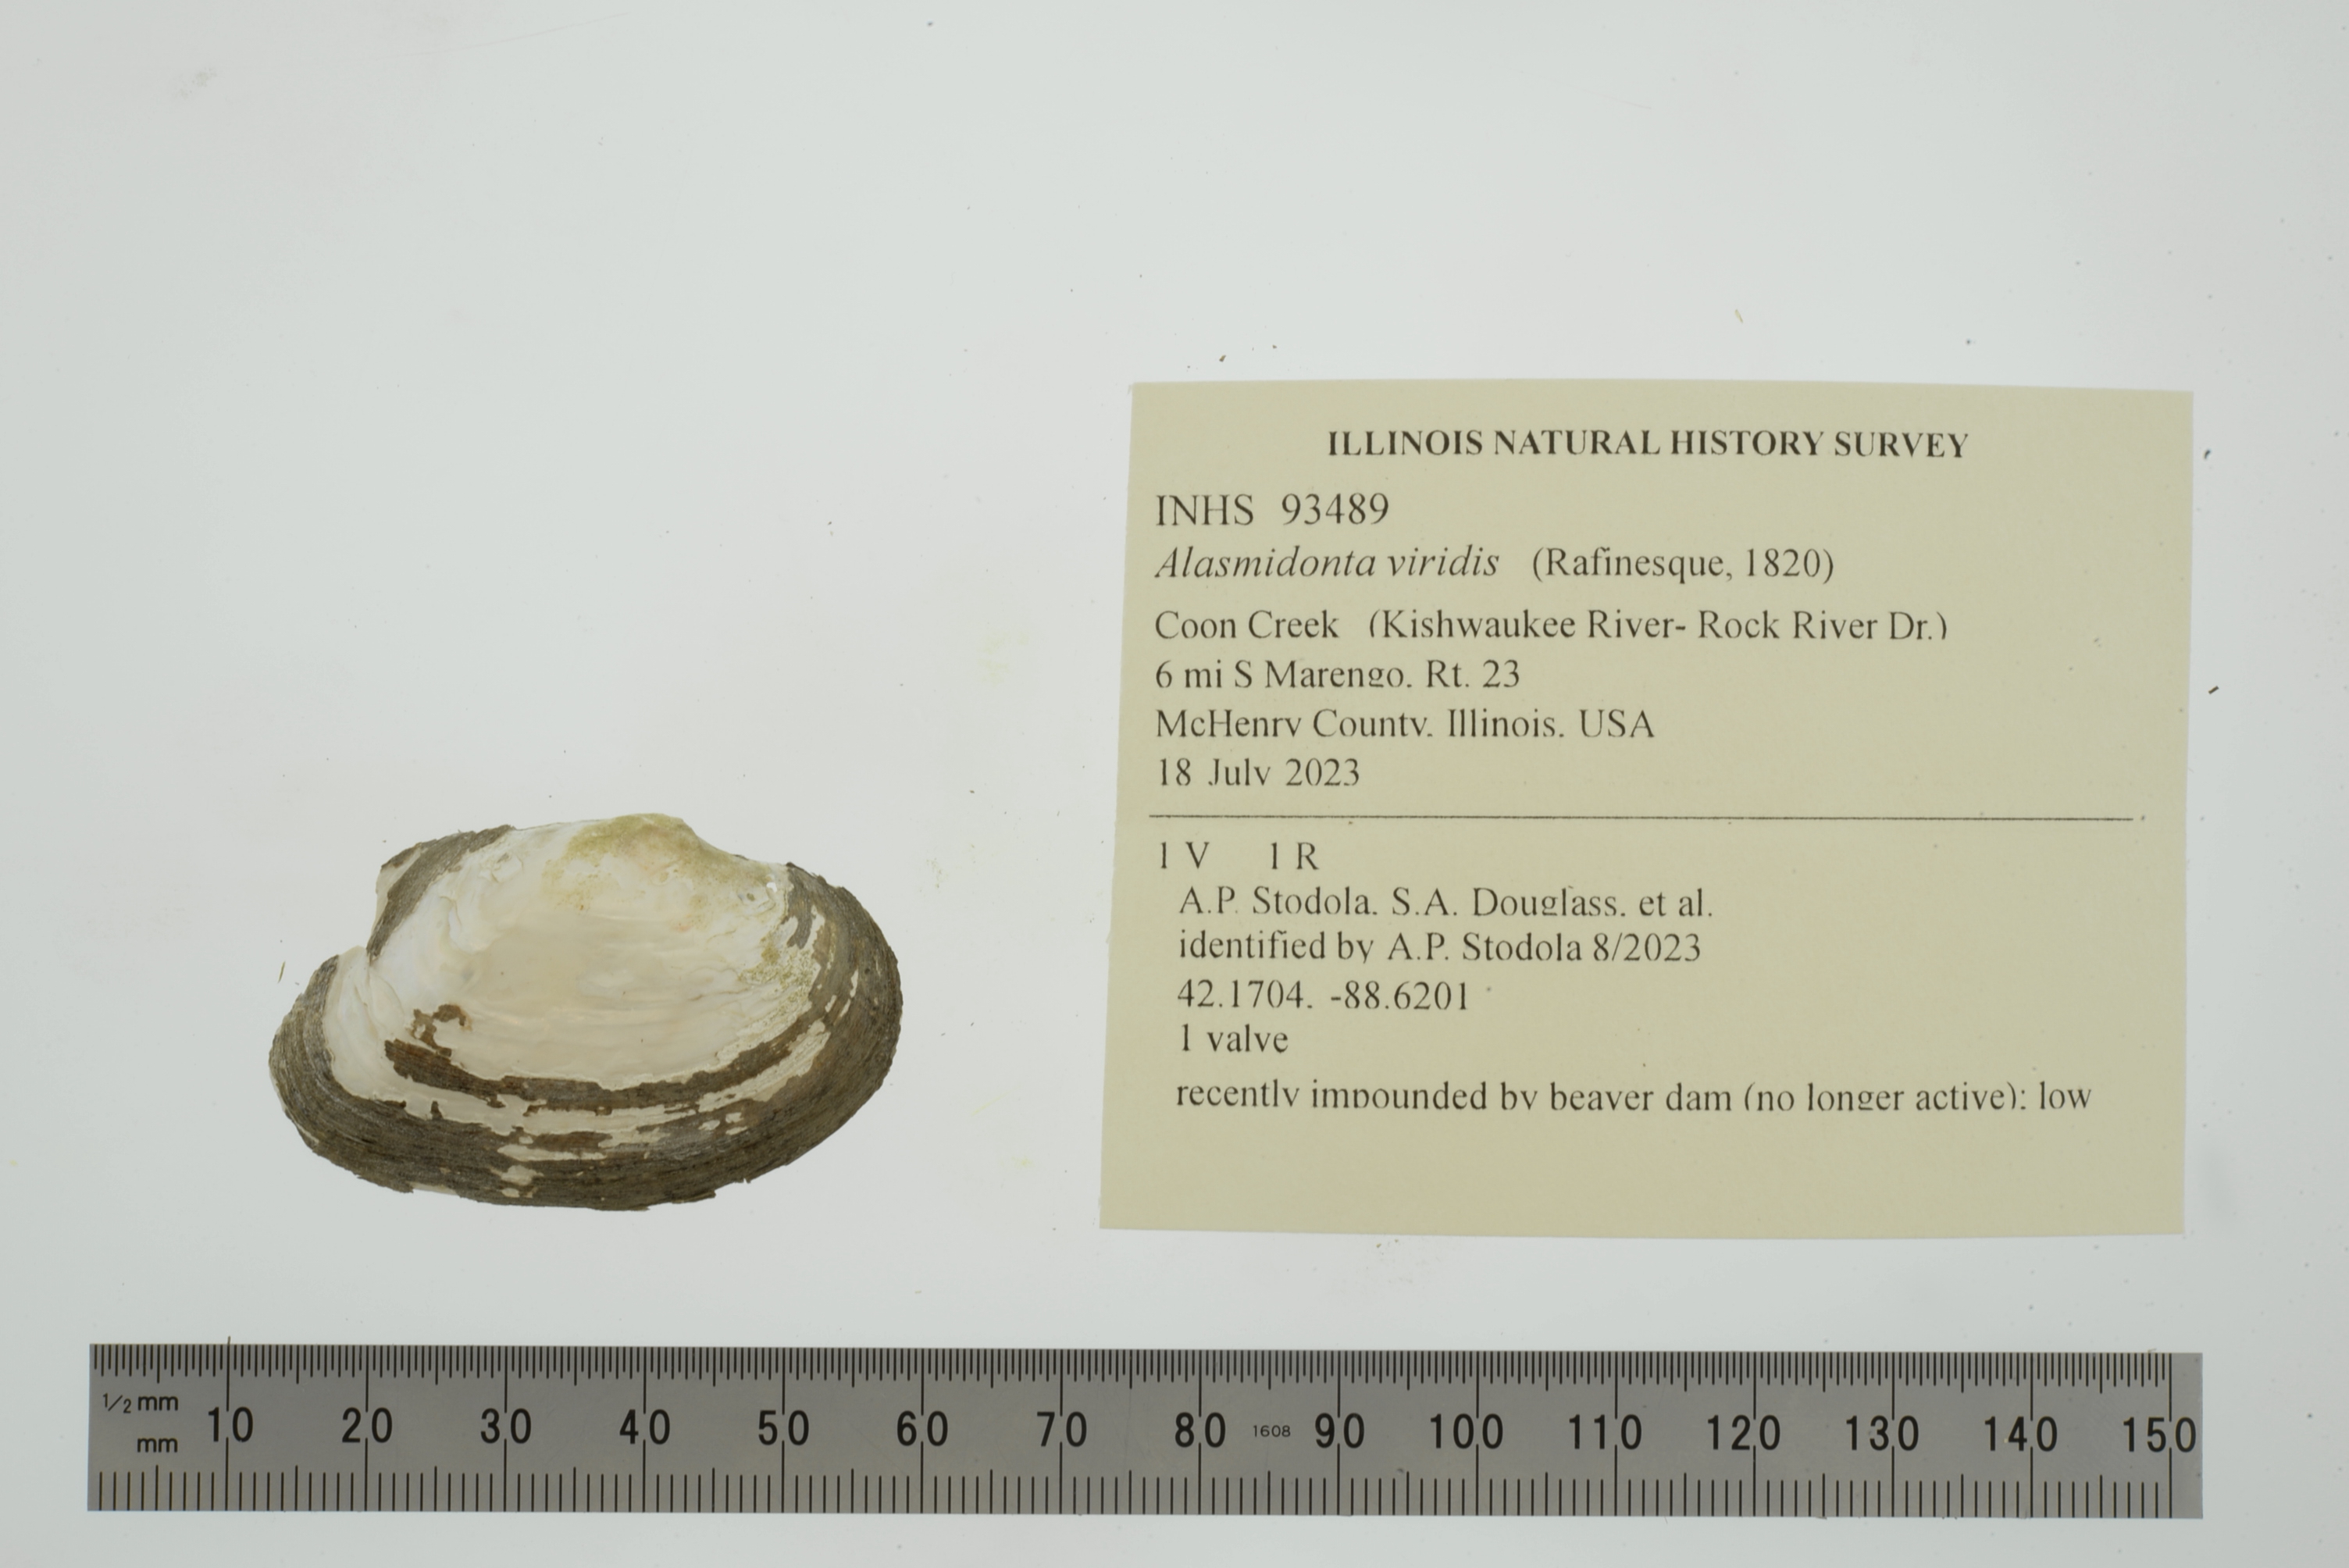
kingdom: Animalia
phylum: Mollusca
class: Bivalvia
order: Unionida
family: Unionidae
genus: Alasmidonta
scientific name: Alasmidonta viridis
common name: Slippershell mussel
